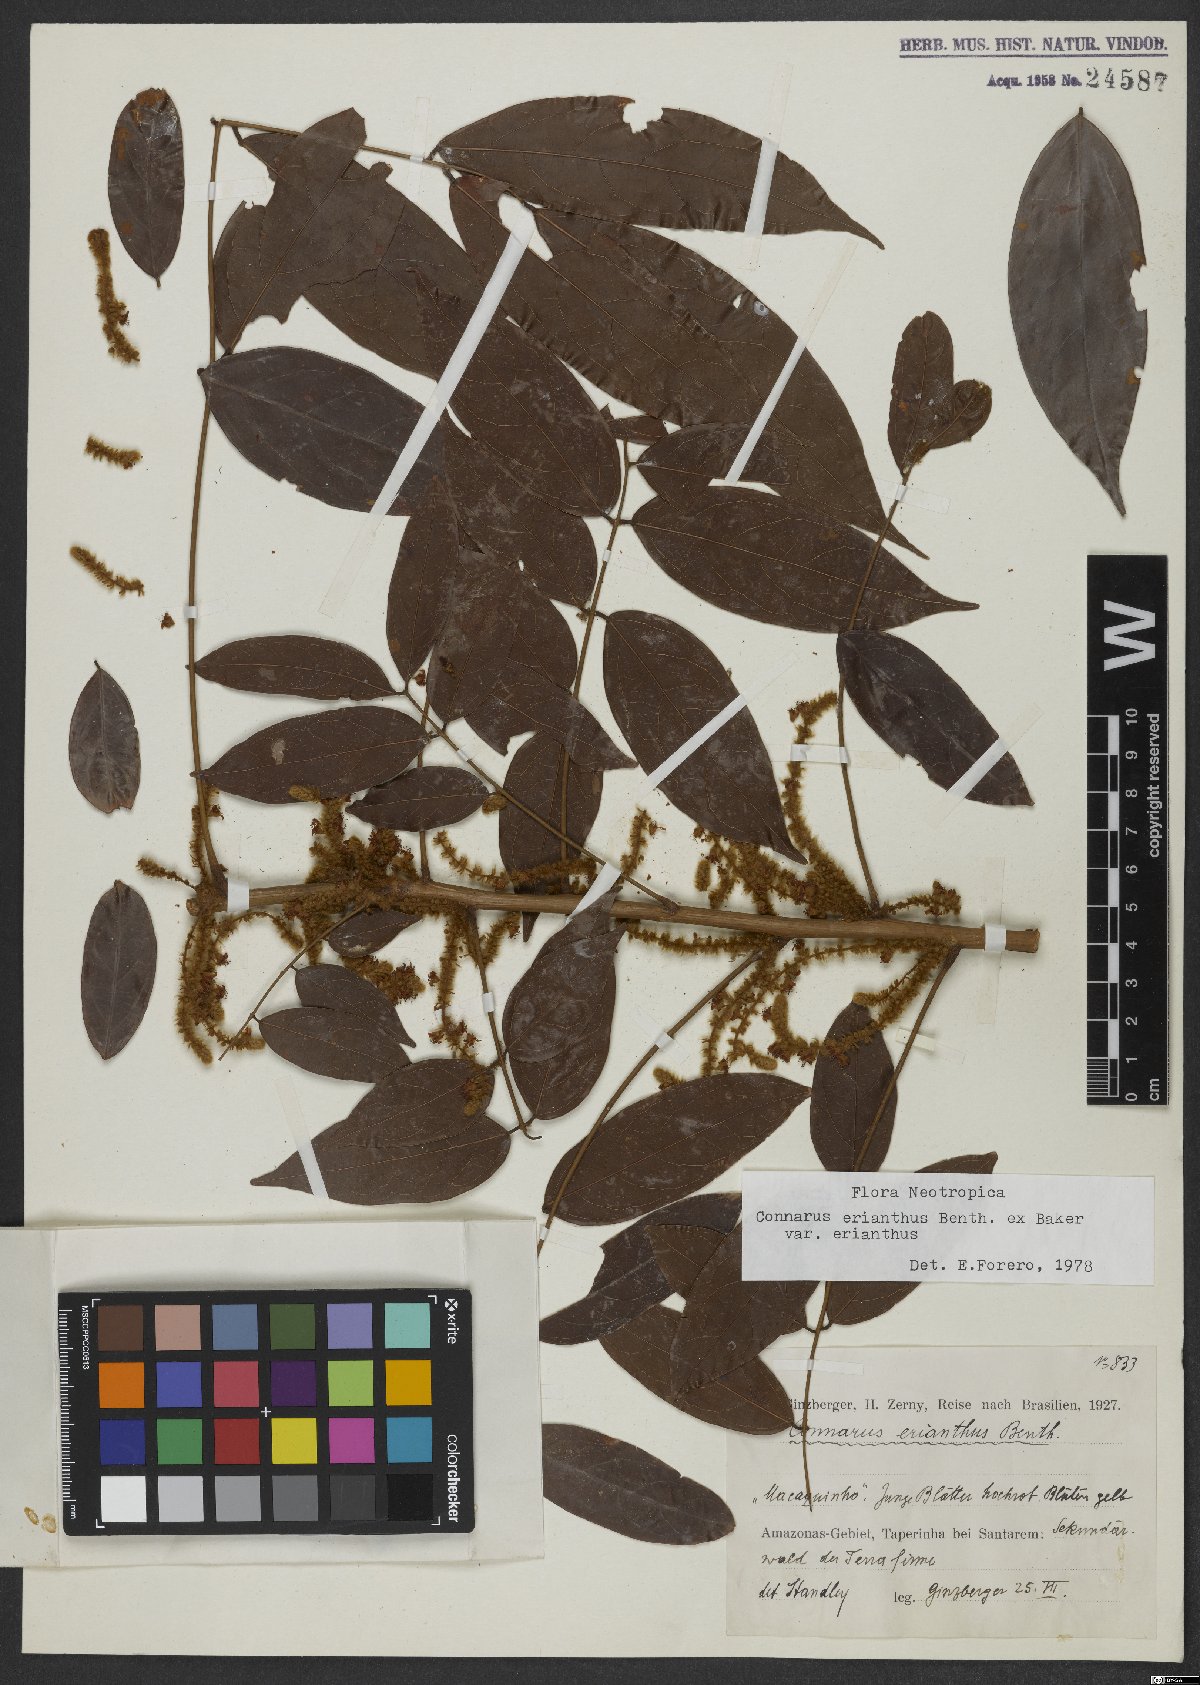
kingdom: Plantae
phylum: Tracheophyta
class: Magnoliopsida
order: Oxalidales
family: Connaraceae
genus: Connarus
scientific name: Connarus erianthus
